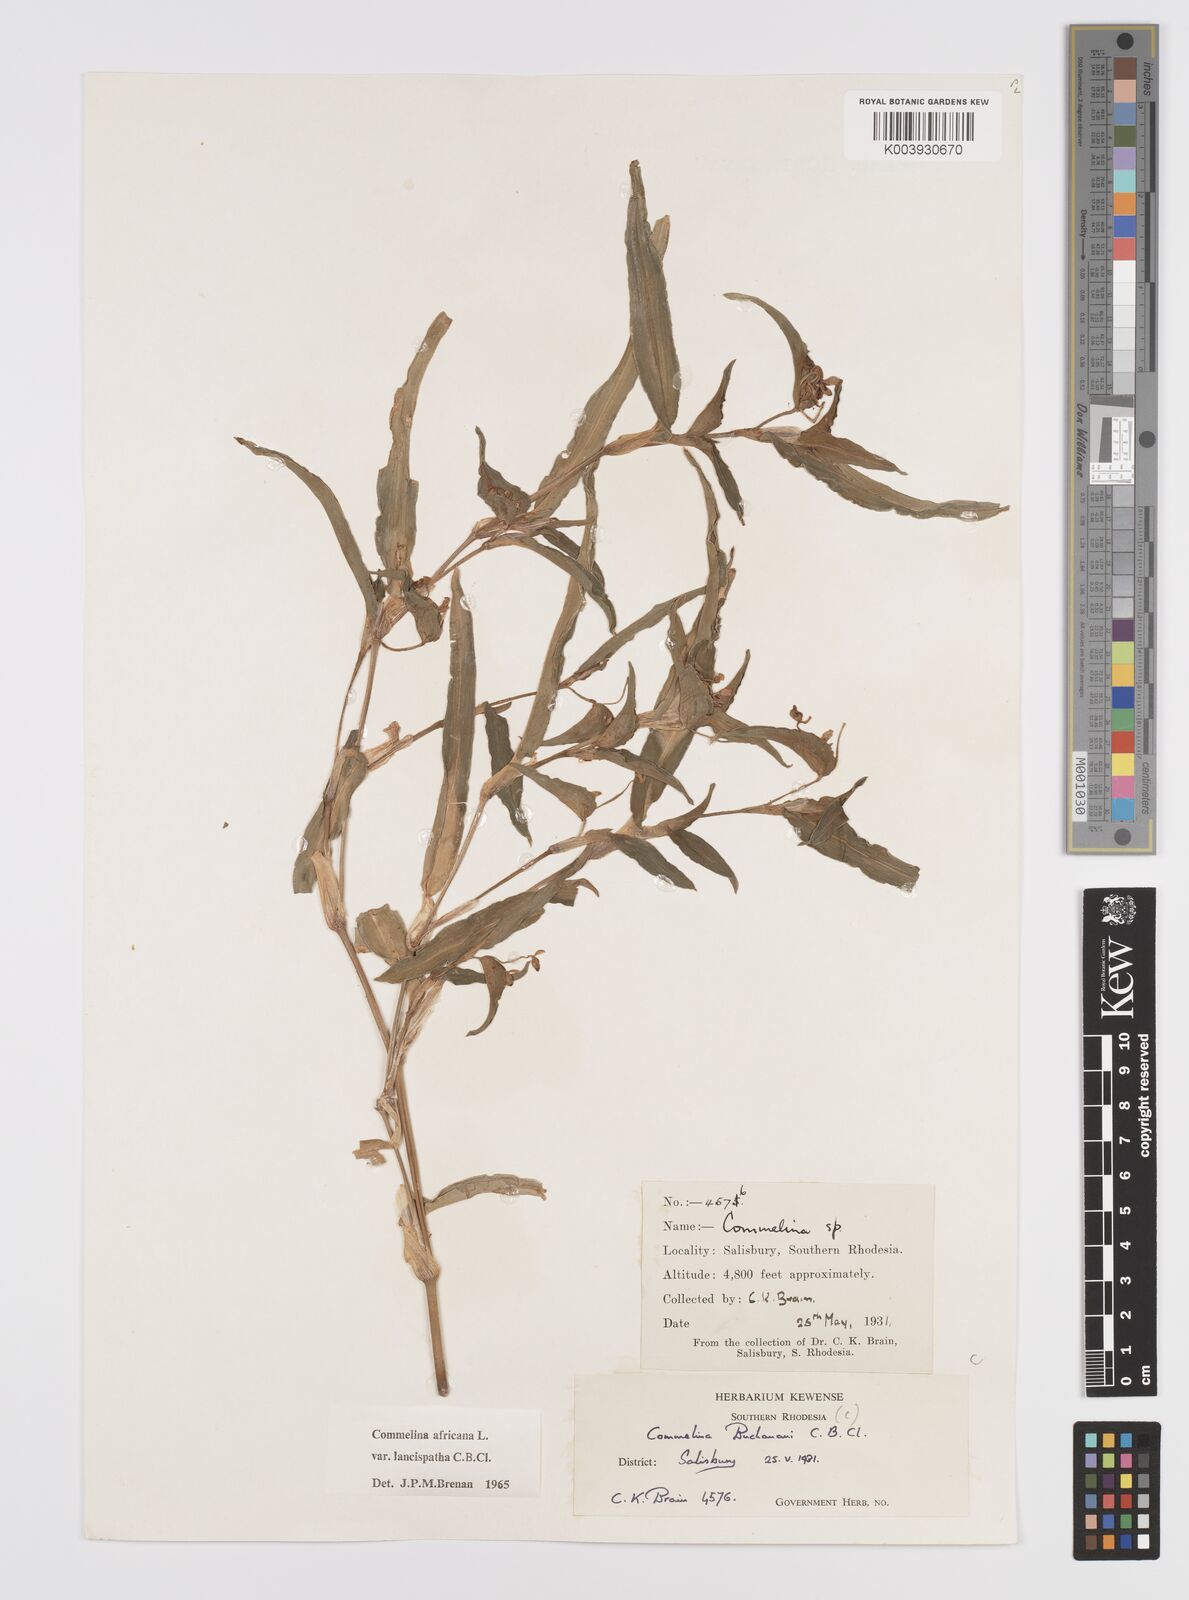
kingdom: Plantae
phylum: Tracheophyta
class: Liliopsida
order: Commelinales
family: Commelinaceae
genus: Commelina
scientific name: Commelina africana
